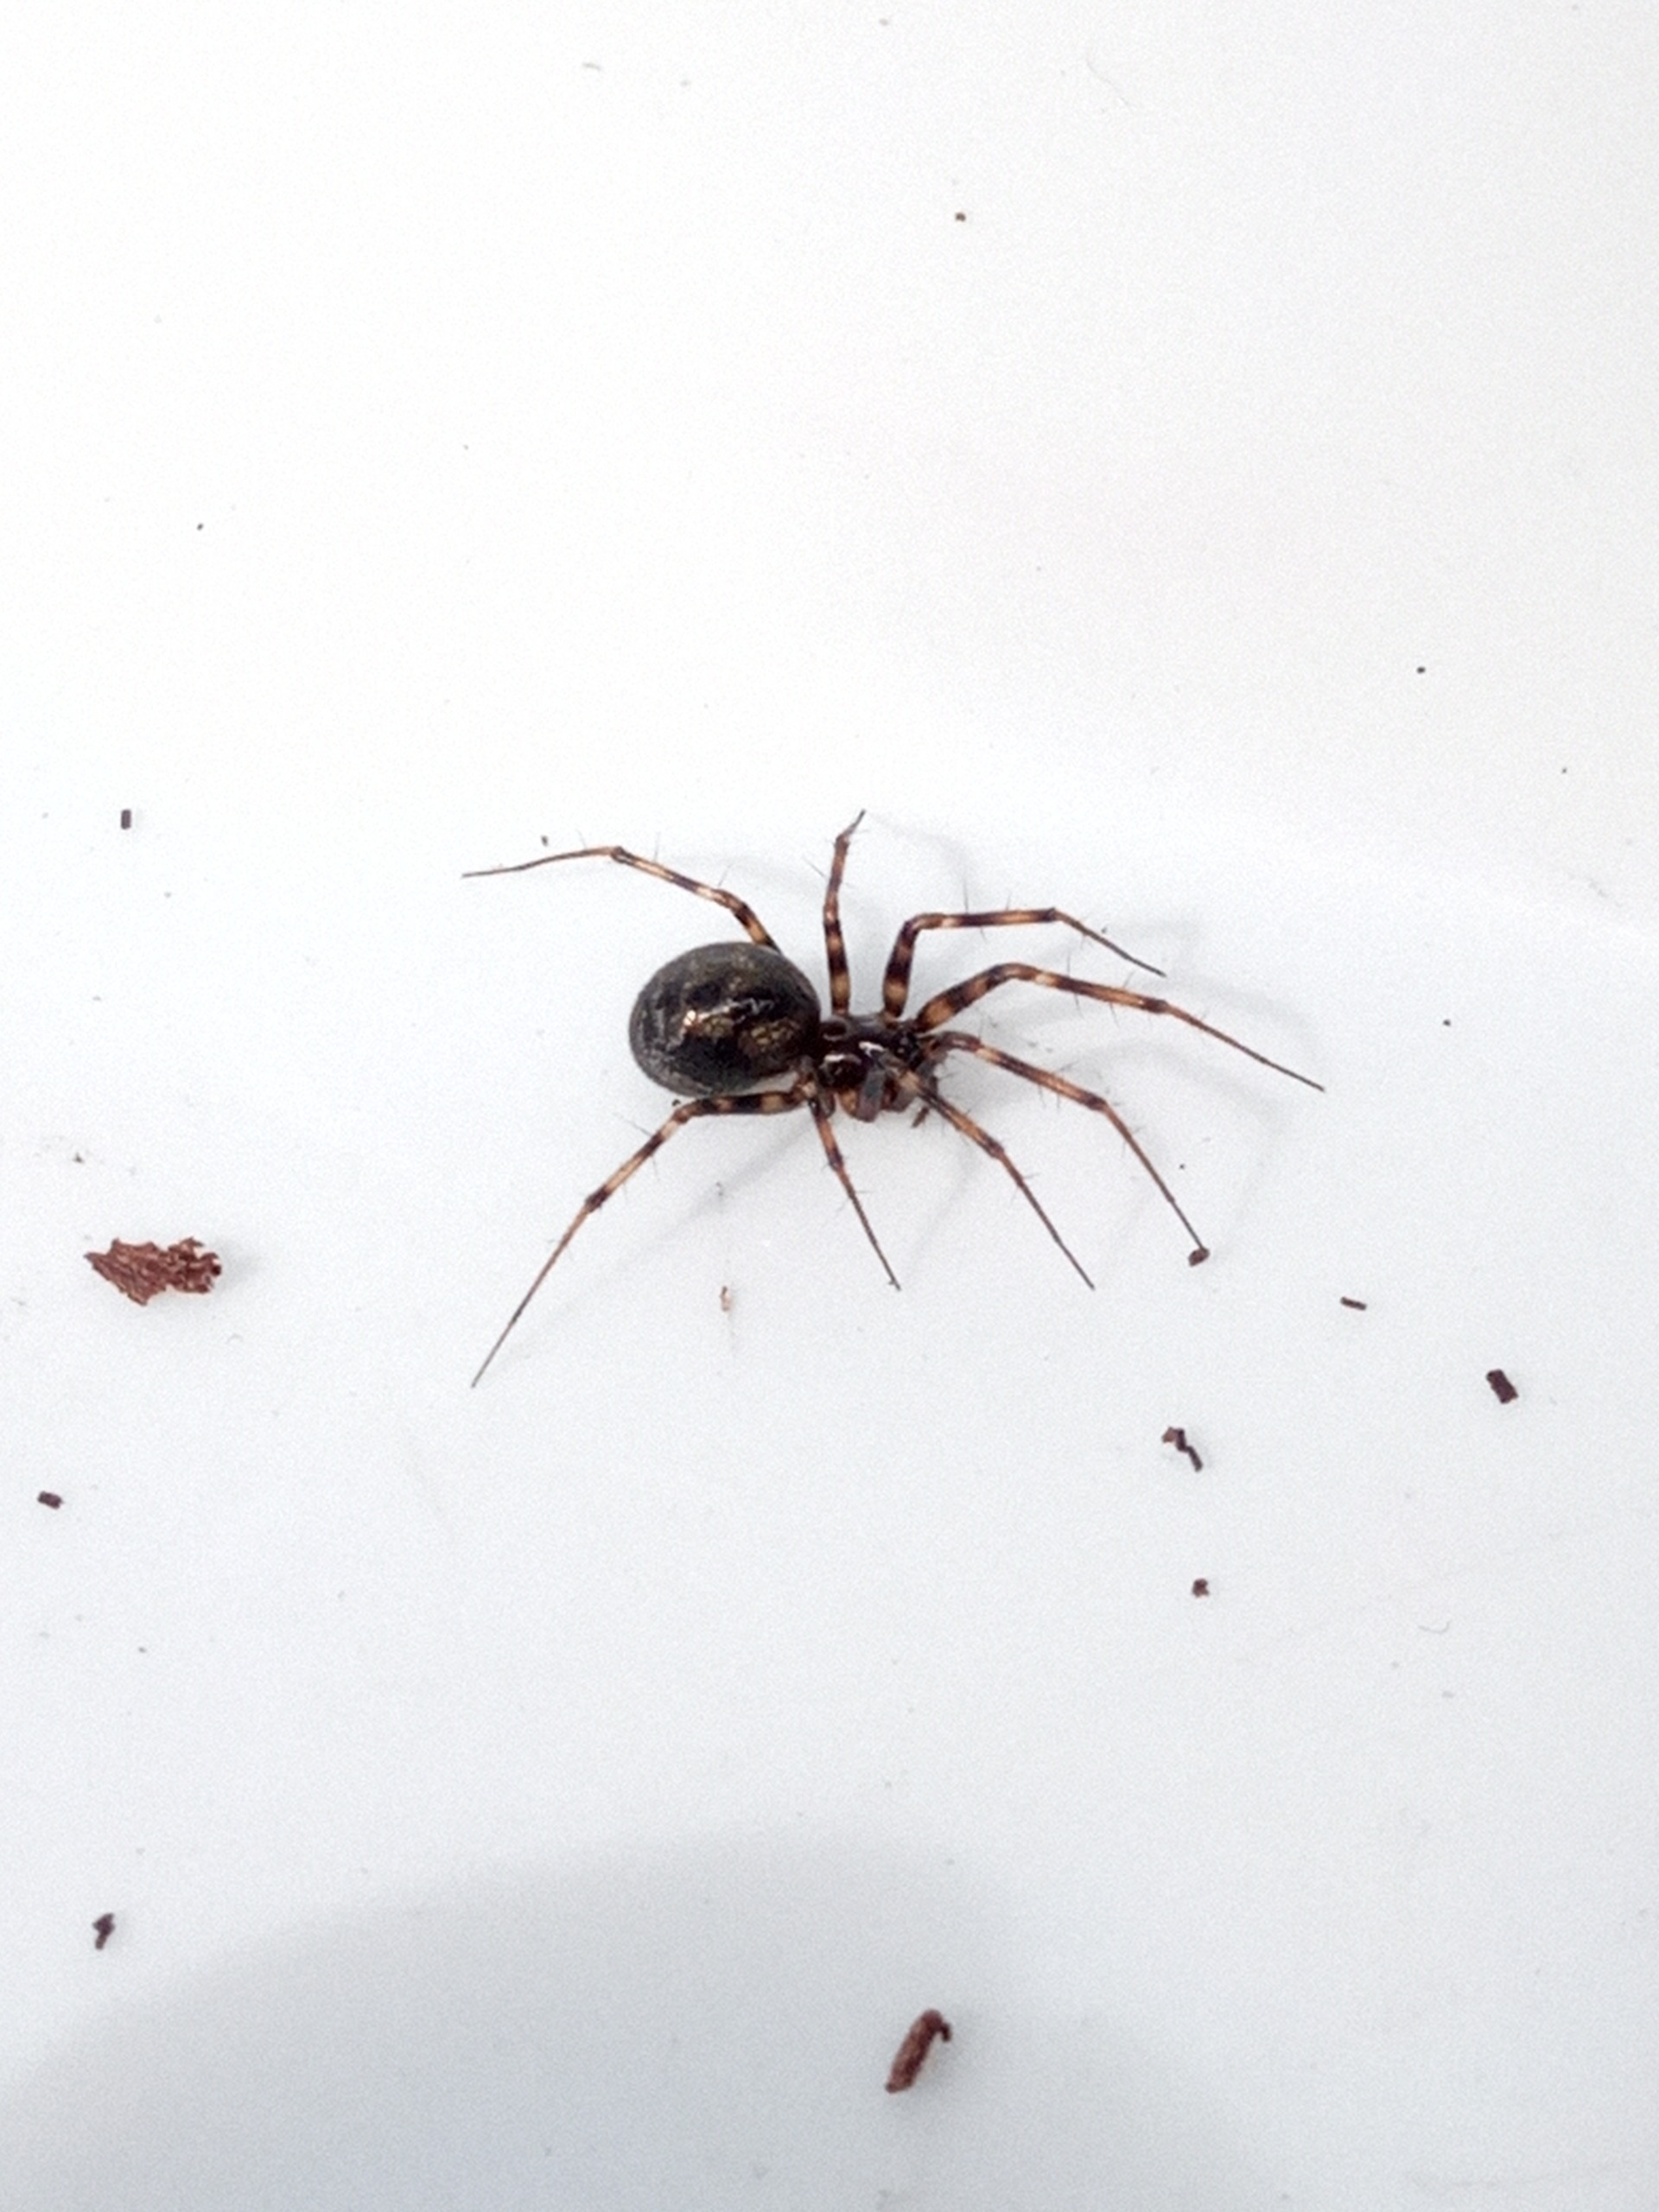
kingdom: Animalia
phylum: Arthropoda
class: Arachnida
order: Araneae
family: Linyphiidae
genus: Lepthyphantes
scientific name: Lepthyphantes minutus
